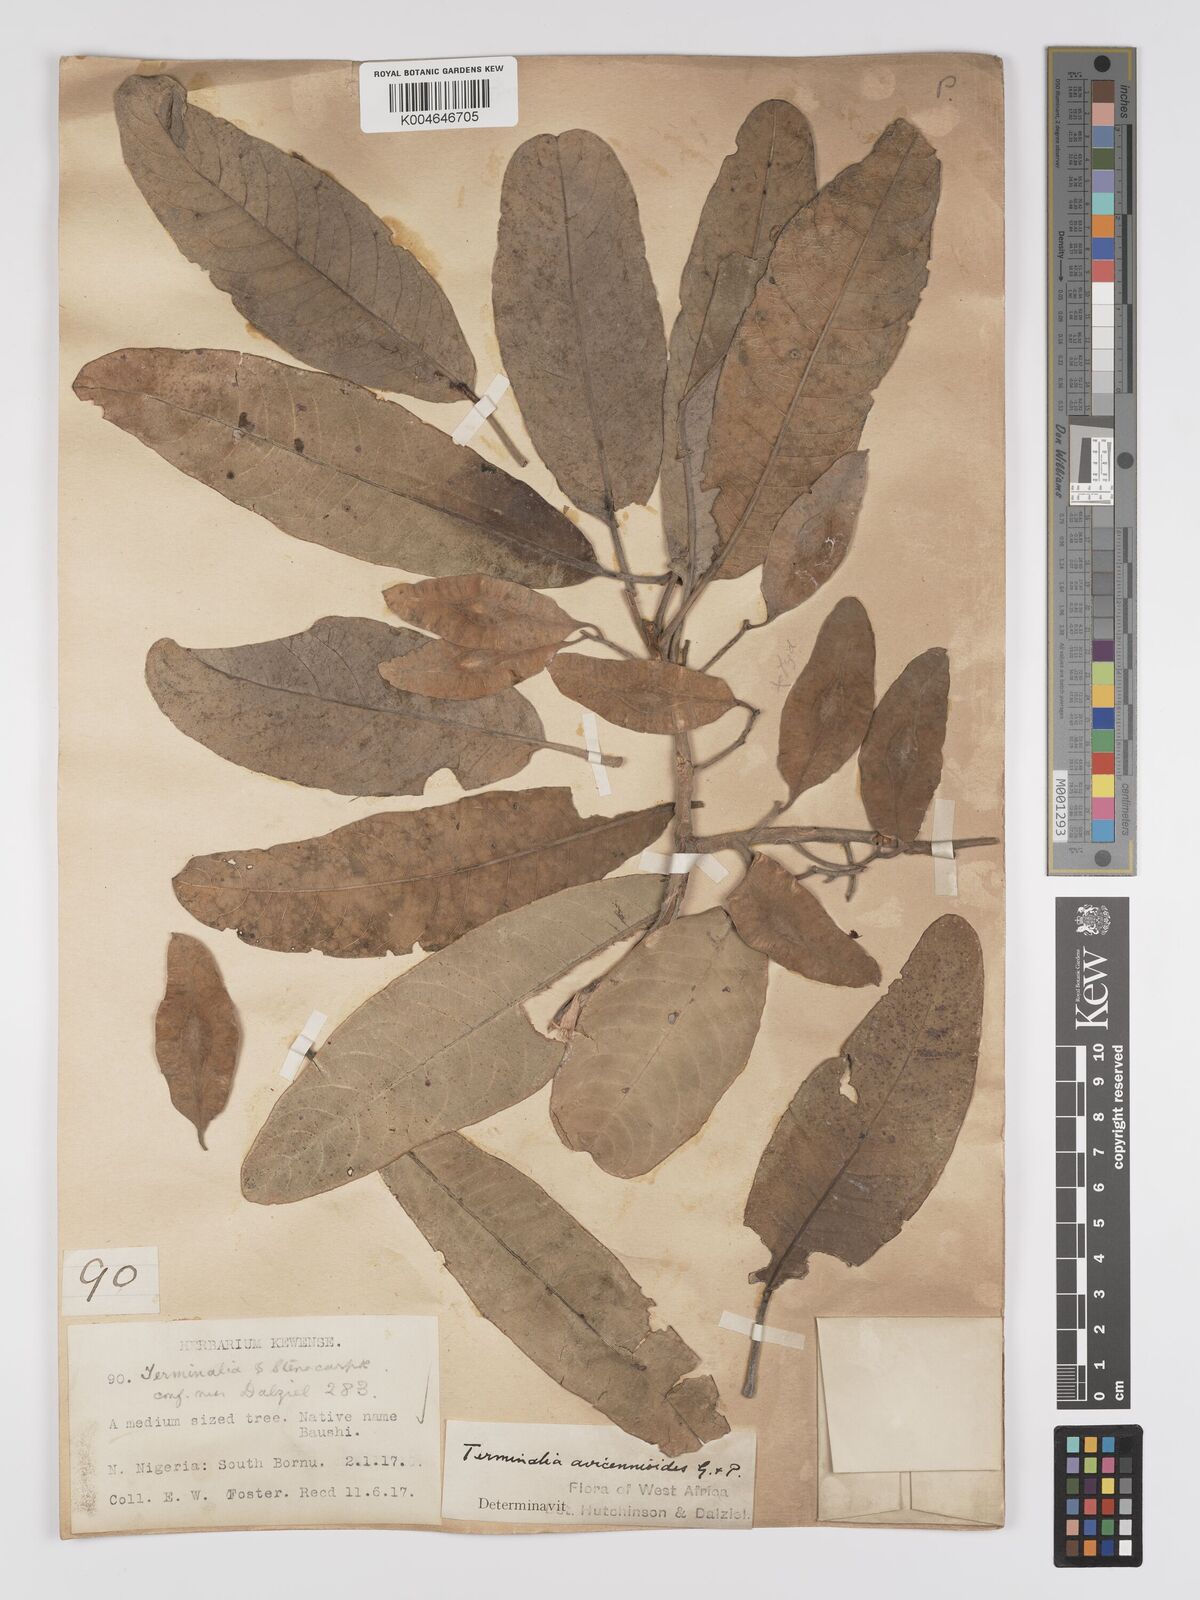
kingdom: Plantae
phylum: Tracheophyta
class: Magnoliopsida
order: Myrtales
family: Combretaceae
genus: Terminalia
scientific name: Terminalia avicennioides
